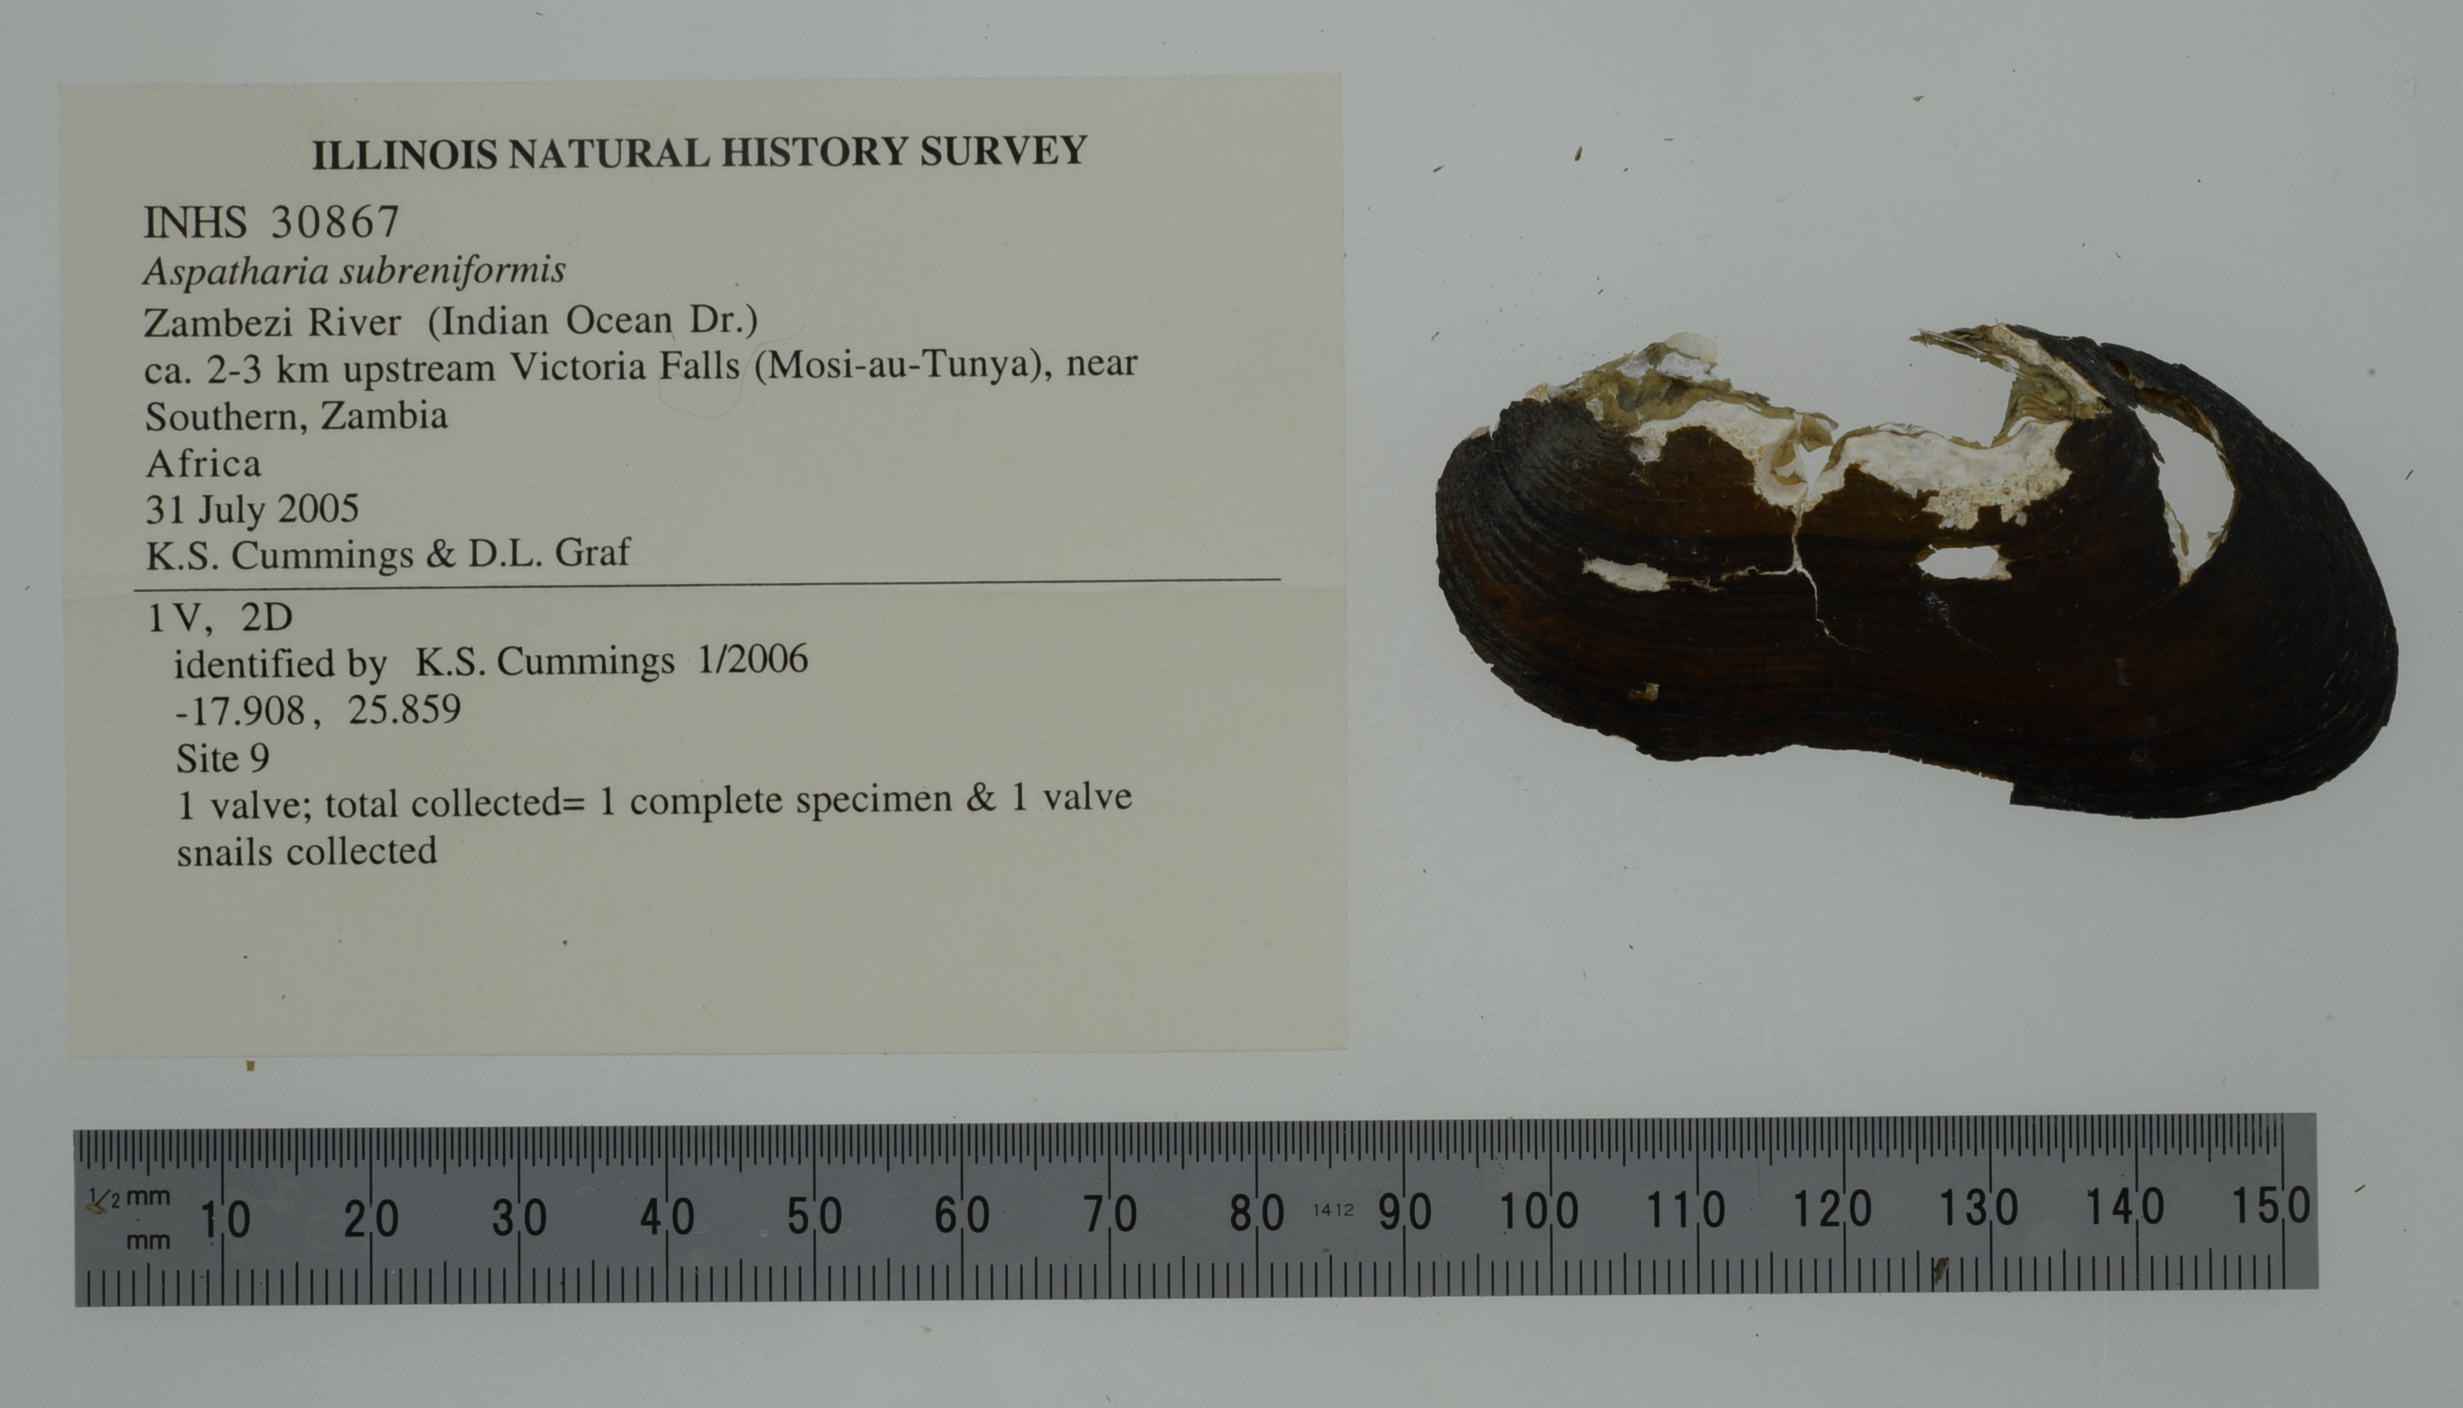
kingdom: Animalia
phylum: Mollusca
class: Bivalvia
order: Unionida
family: Iridinidae
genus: Aspatharia
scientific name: Aspatharia subreniformis
